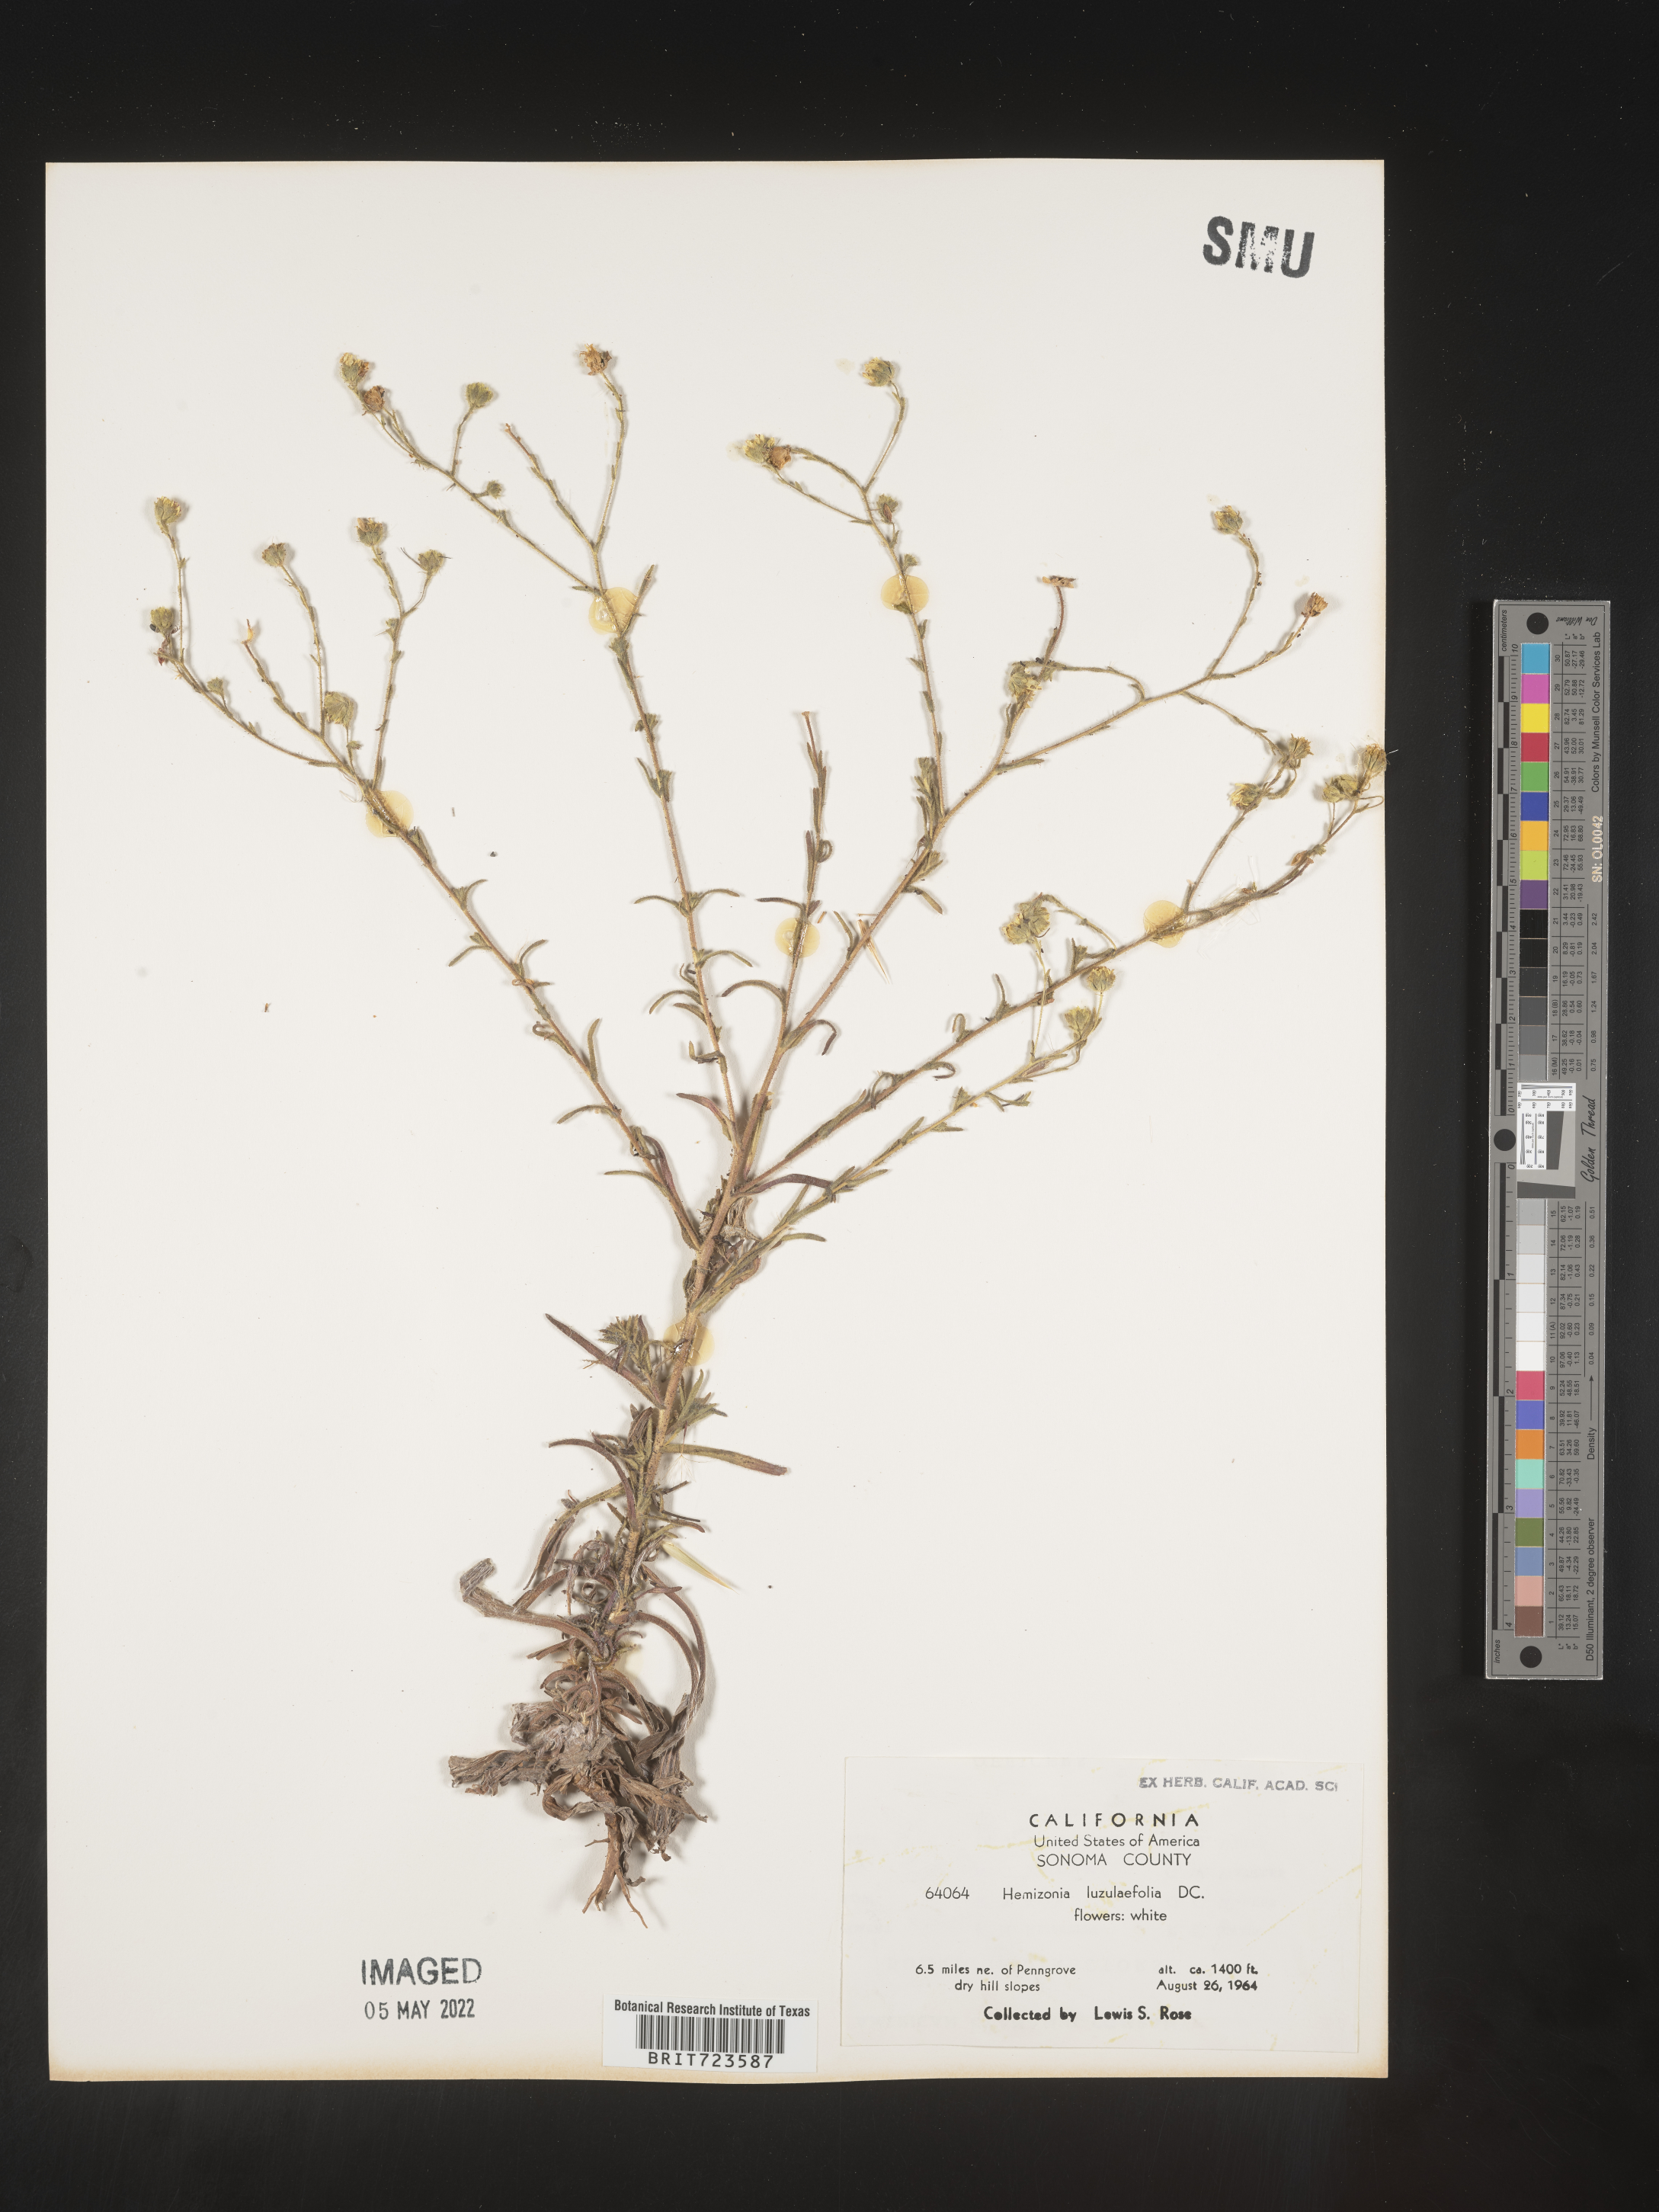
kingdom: Plantae
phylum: Tracheophyta
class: Magnoliopsida
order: Asterales
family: Asteraceae
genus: Hemizonia
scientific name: Hemizonia
